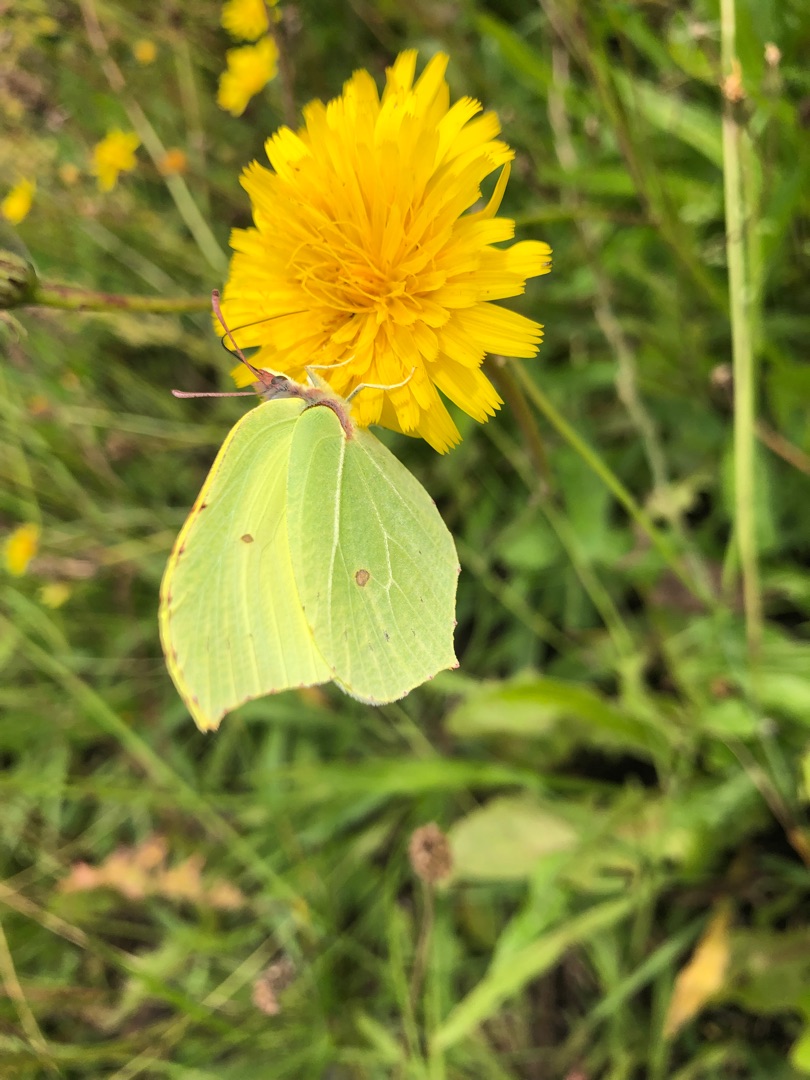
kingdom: Animalia
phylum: Arthropoda
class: Insecta
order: Lepidoptera
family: Pieridae
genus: Gonepteryx
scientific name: Gonepteryx rhamni
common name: Citronsommerfugl
